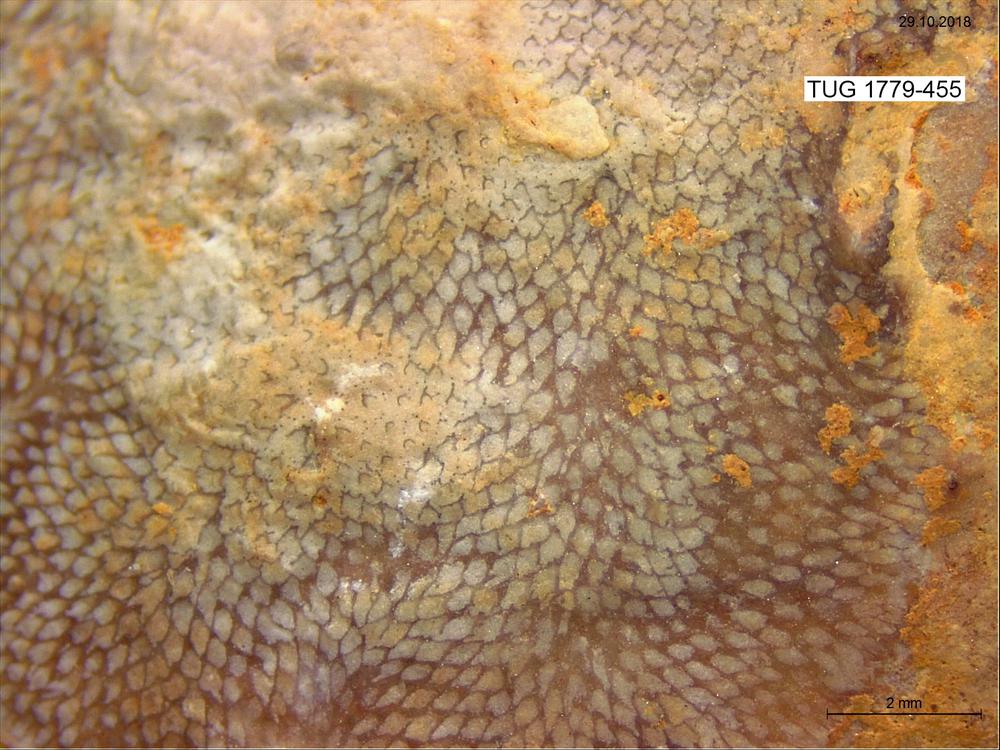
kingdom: Animalia
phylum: Bryozoa
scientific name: Bryozoa
